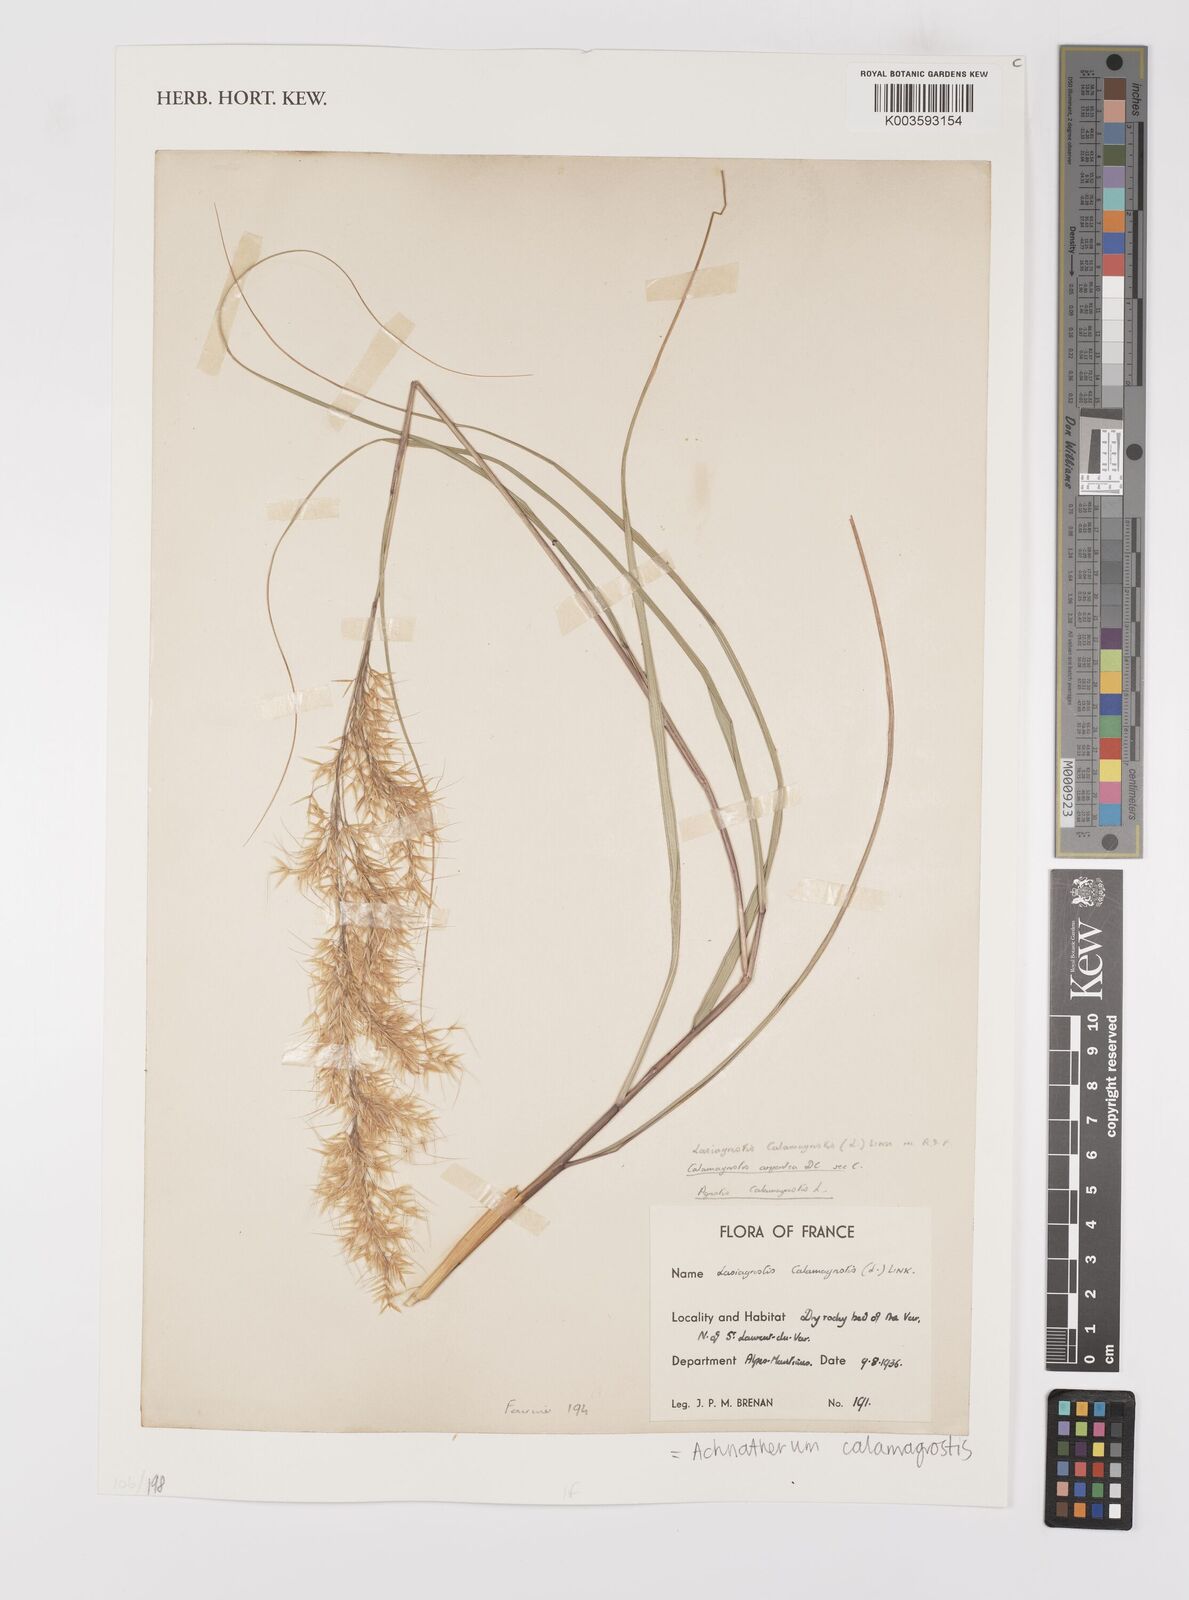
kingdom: Plantae
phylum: Tracheophyta
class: Liliopsida
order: Poales
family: Poaceae
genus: Achnatherum
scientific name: Achnatherum calamagrostis
